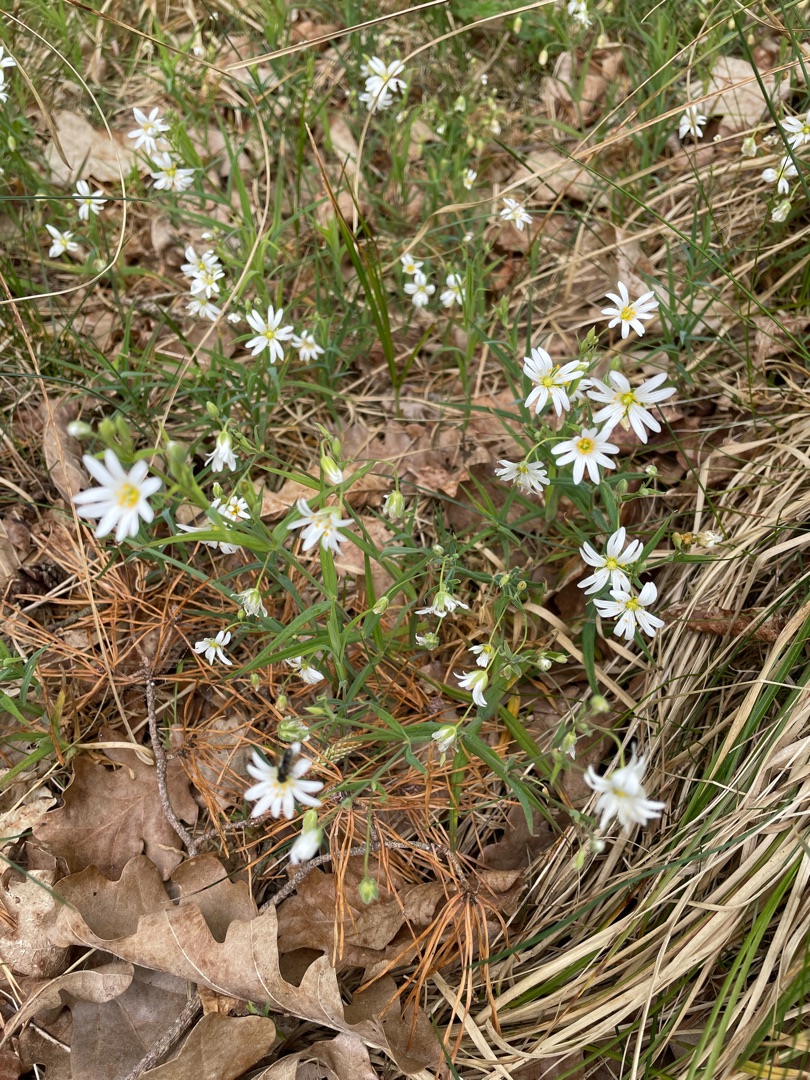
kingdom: Plantae
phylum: Tracheophyta
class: Magnoliopsida
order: Caryophyllales
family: Caryophyllaceae
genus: Rabelera
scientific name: Rabelera holostea
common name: Stor fladstjerne
